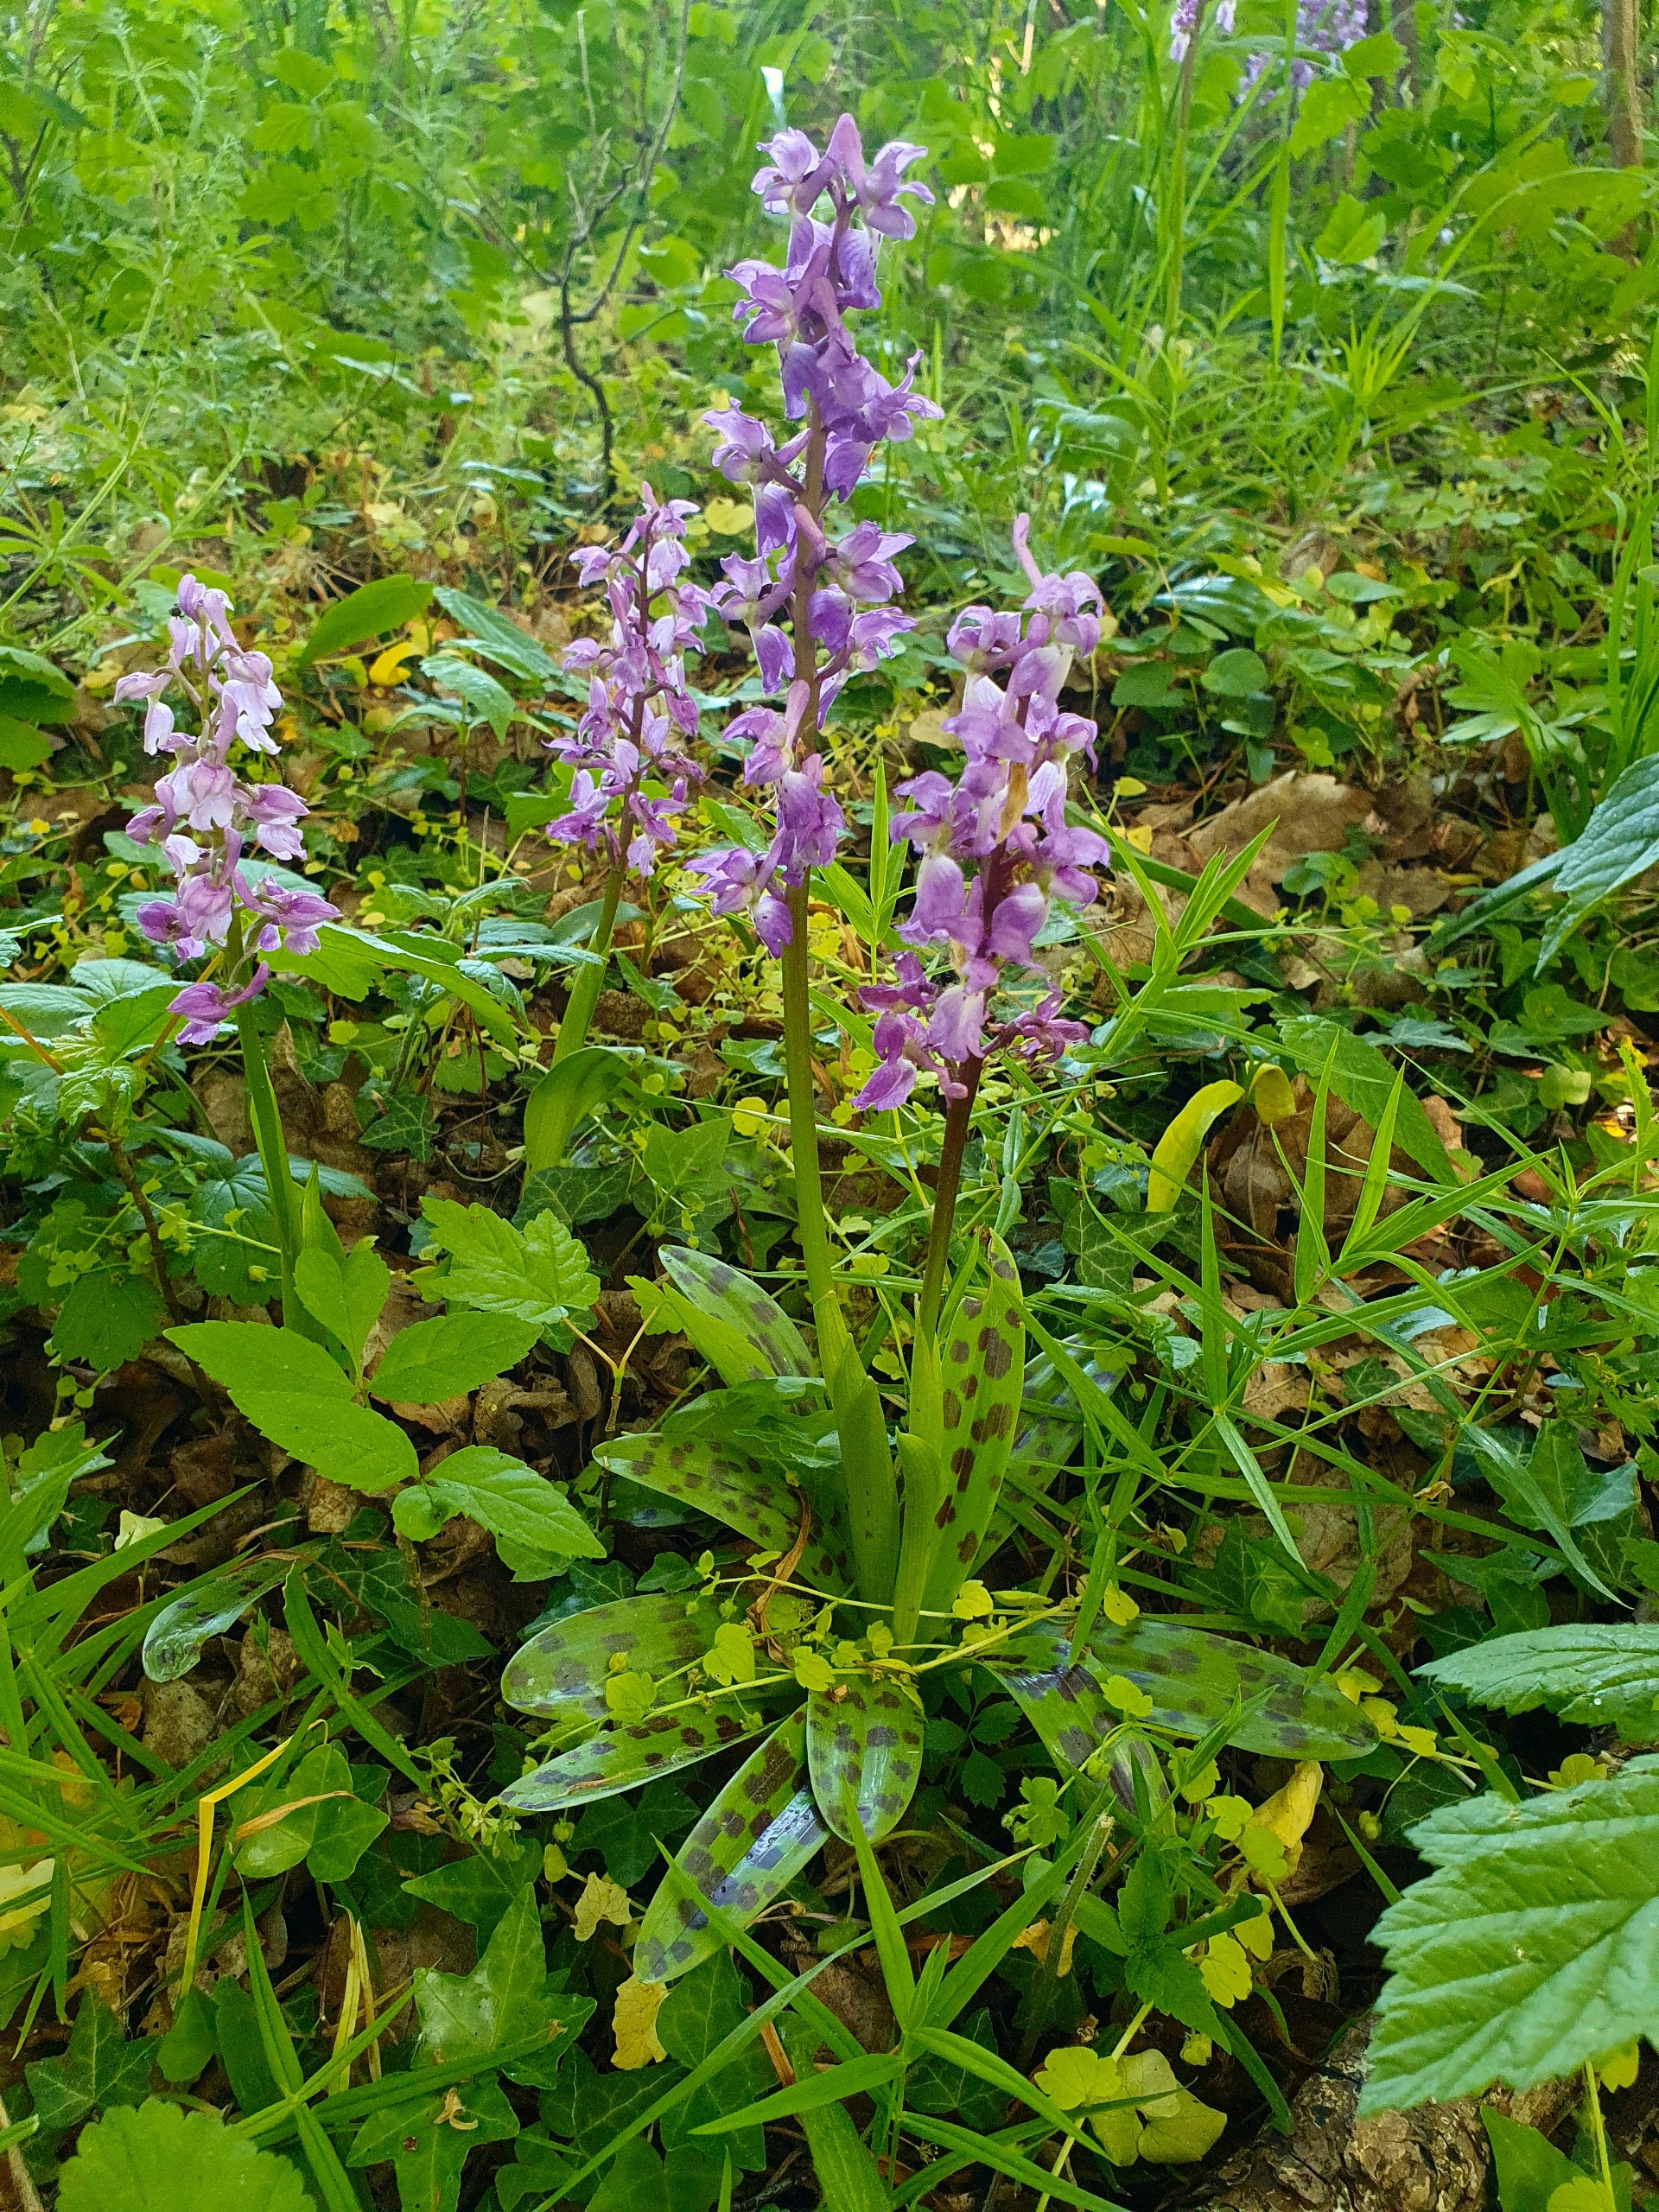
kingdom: Plantae
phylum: Tracheophyta
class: Liliopsida
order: Asparagales
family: Orchidaceae
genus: Orchis
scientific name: Orchis mascula
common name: Tyndakset gøgeurt
